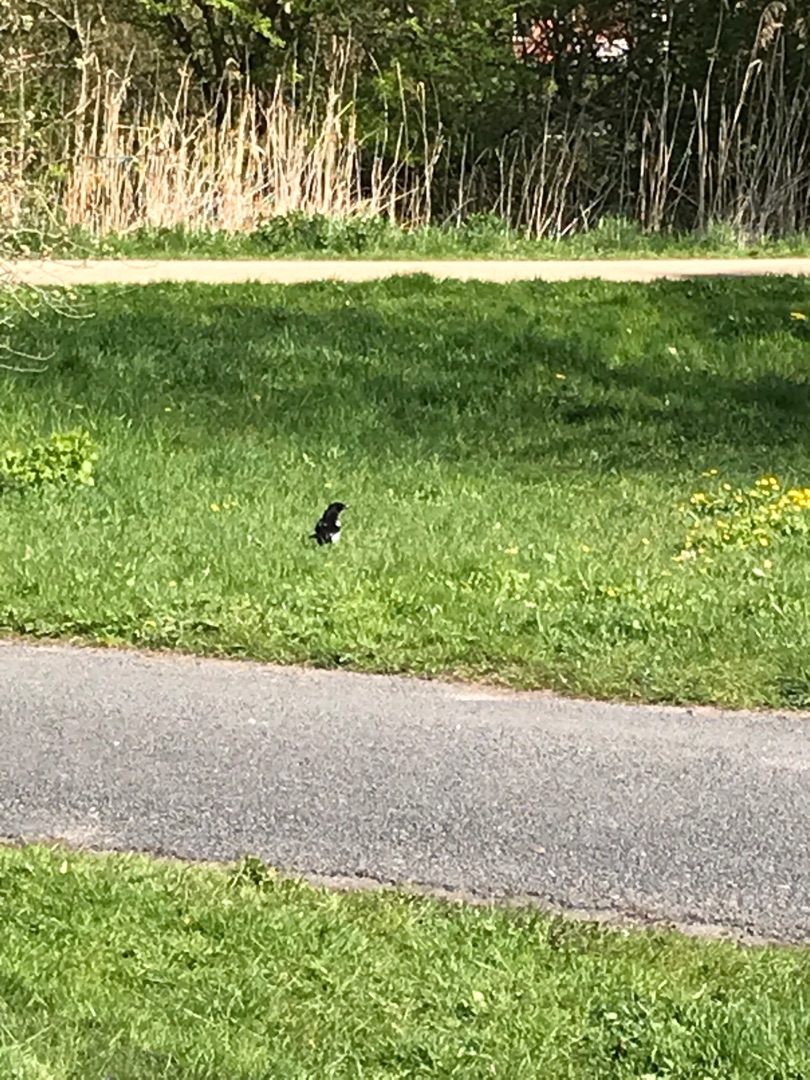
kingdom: Animalia
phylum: Chordata
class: Aves
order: Passeriformes
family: Corvidae
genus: Pica
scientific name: Pica pica
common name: Husskade
